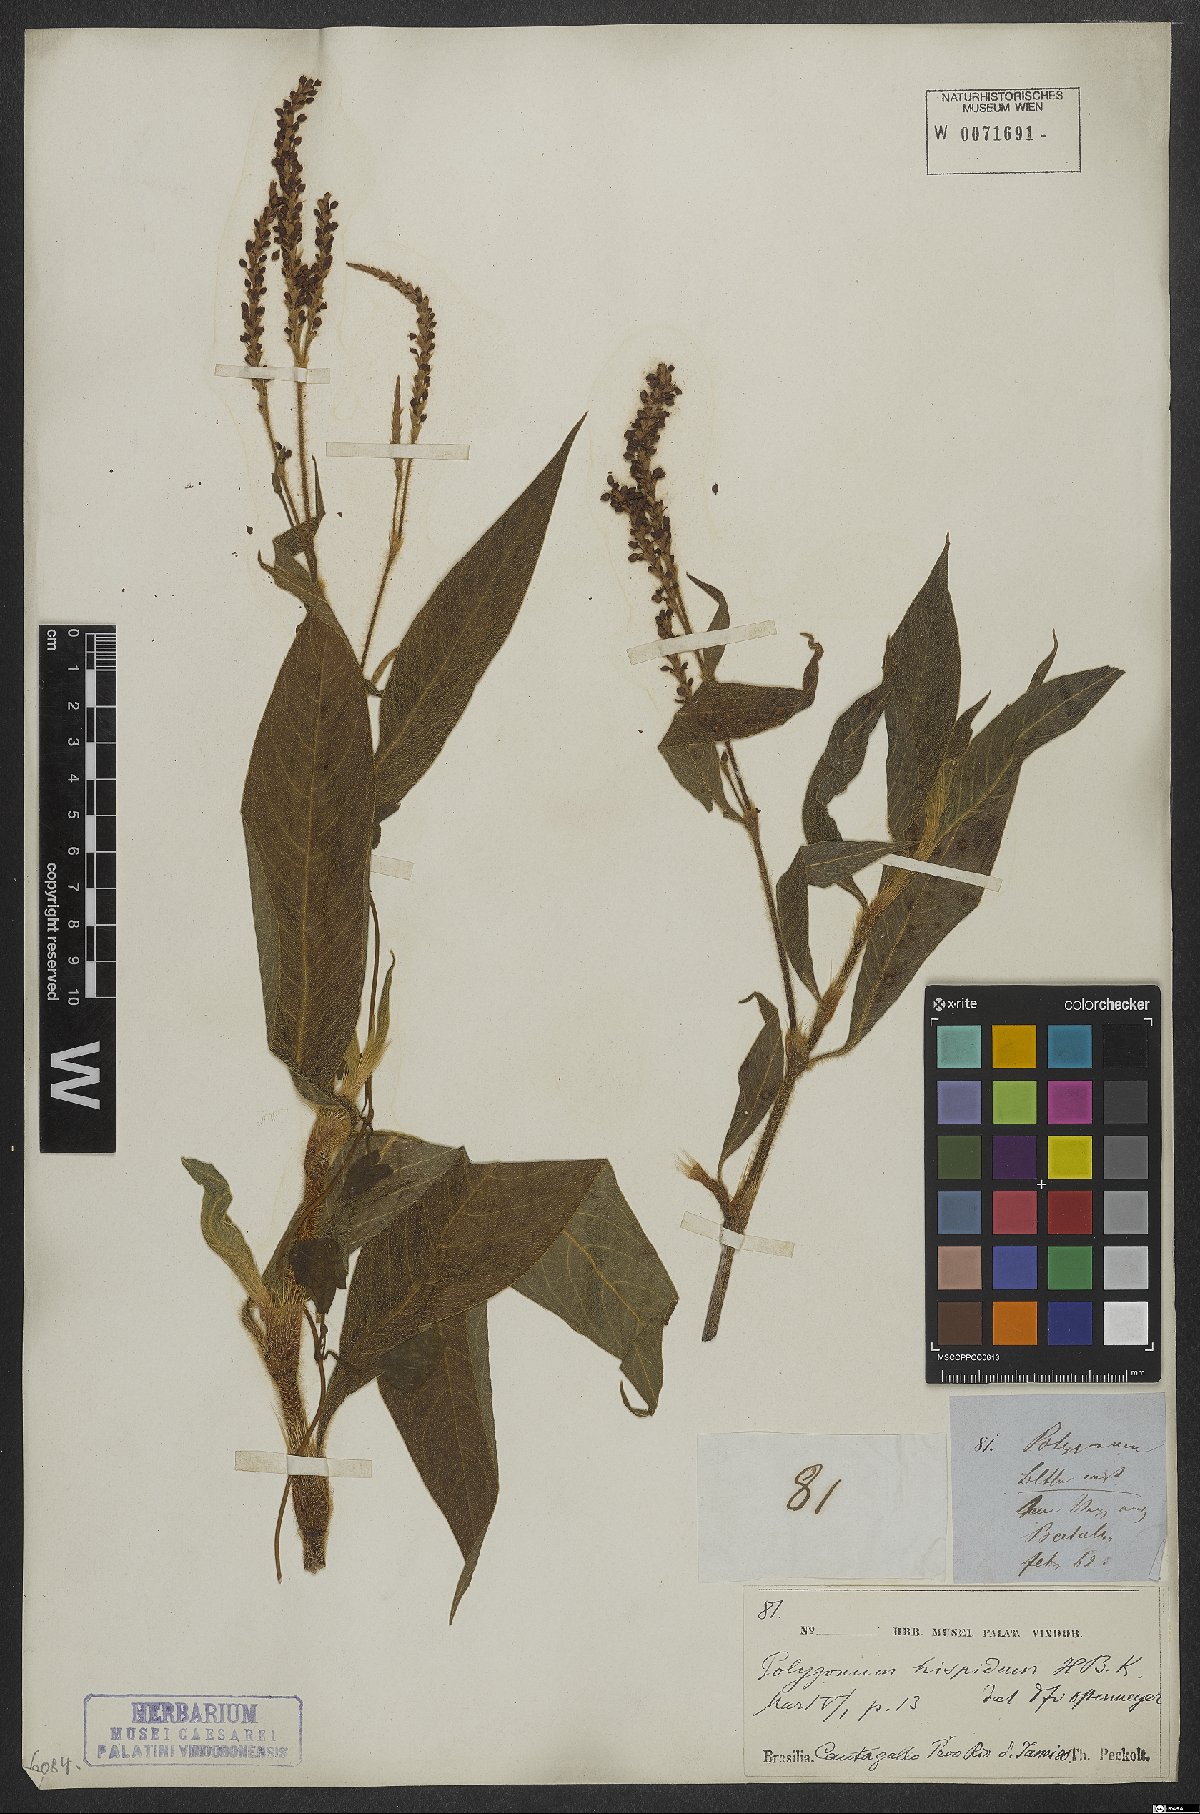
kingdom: Plantae
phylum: Tracheophyta
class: Magnoliopsida
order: Caryophyllales
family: Polygonaceae
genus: Persicaria
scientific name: Persicaria hispida
